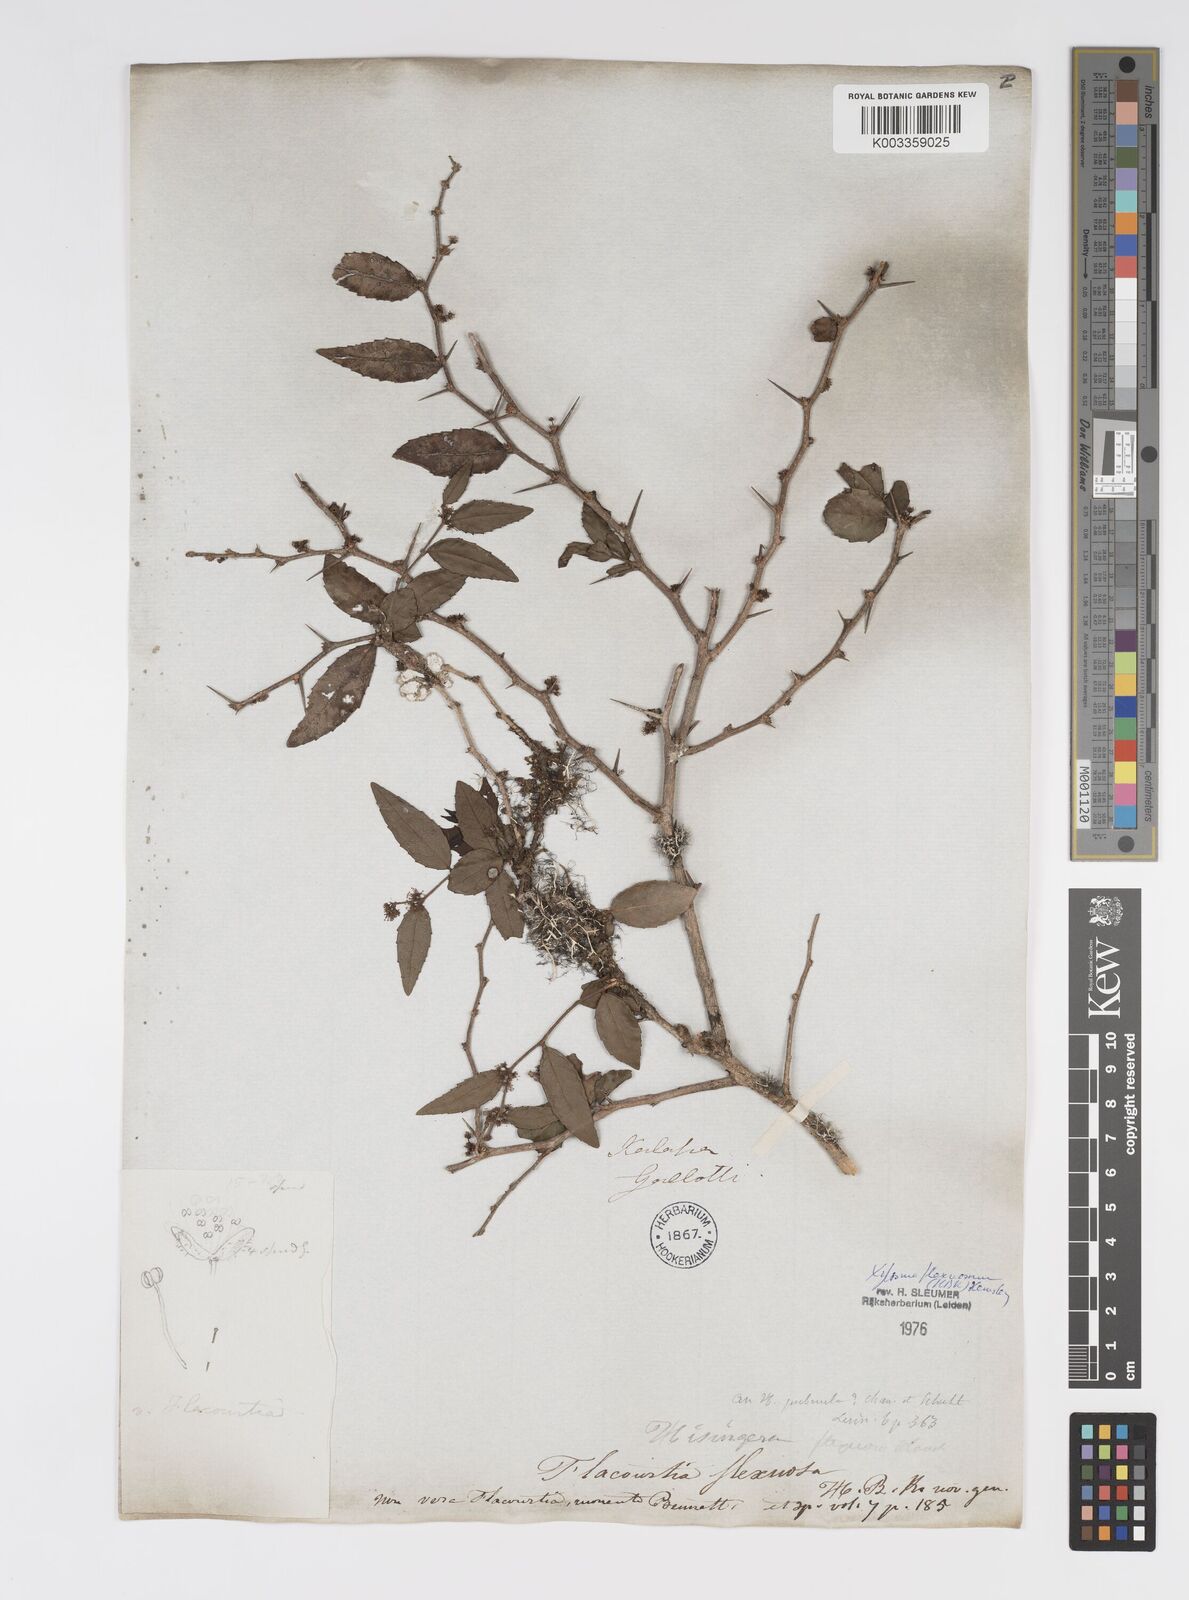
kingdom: Plantae
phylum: Tracheophyta
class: Magnoliopsida
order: Malpighiales
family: Salicaceae
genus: Xylosma
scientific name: Xylosma flexuosa
